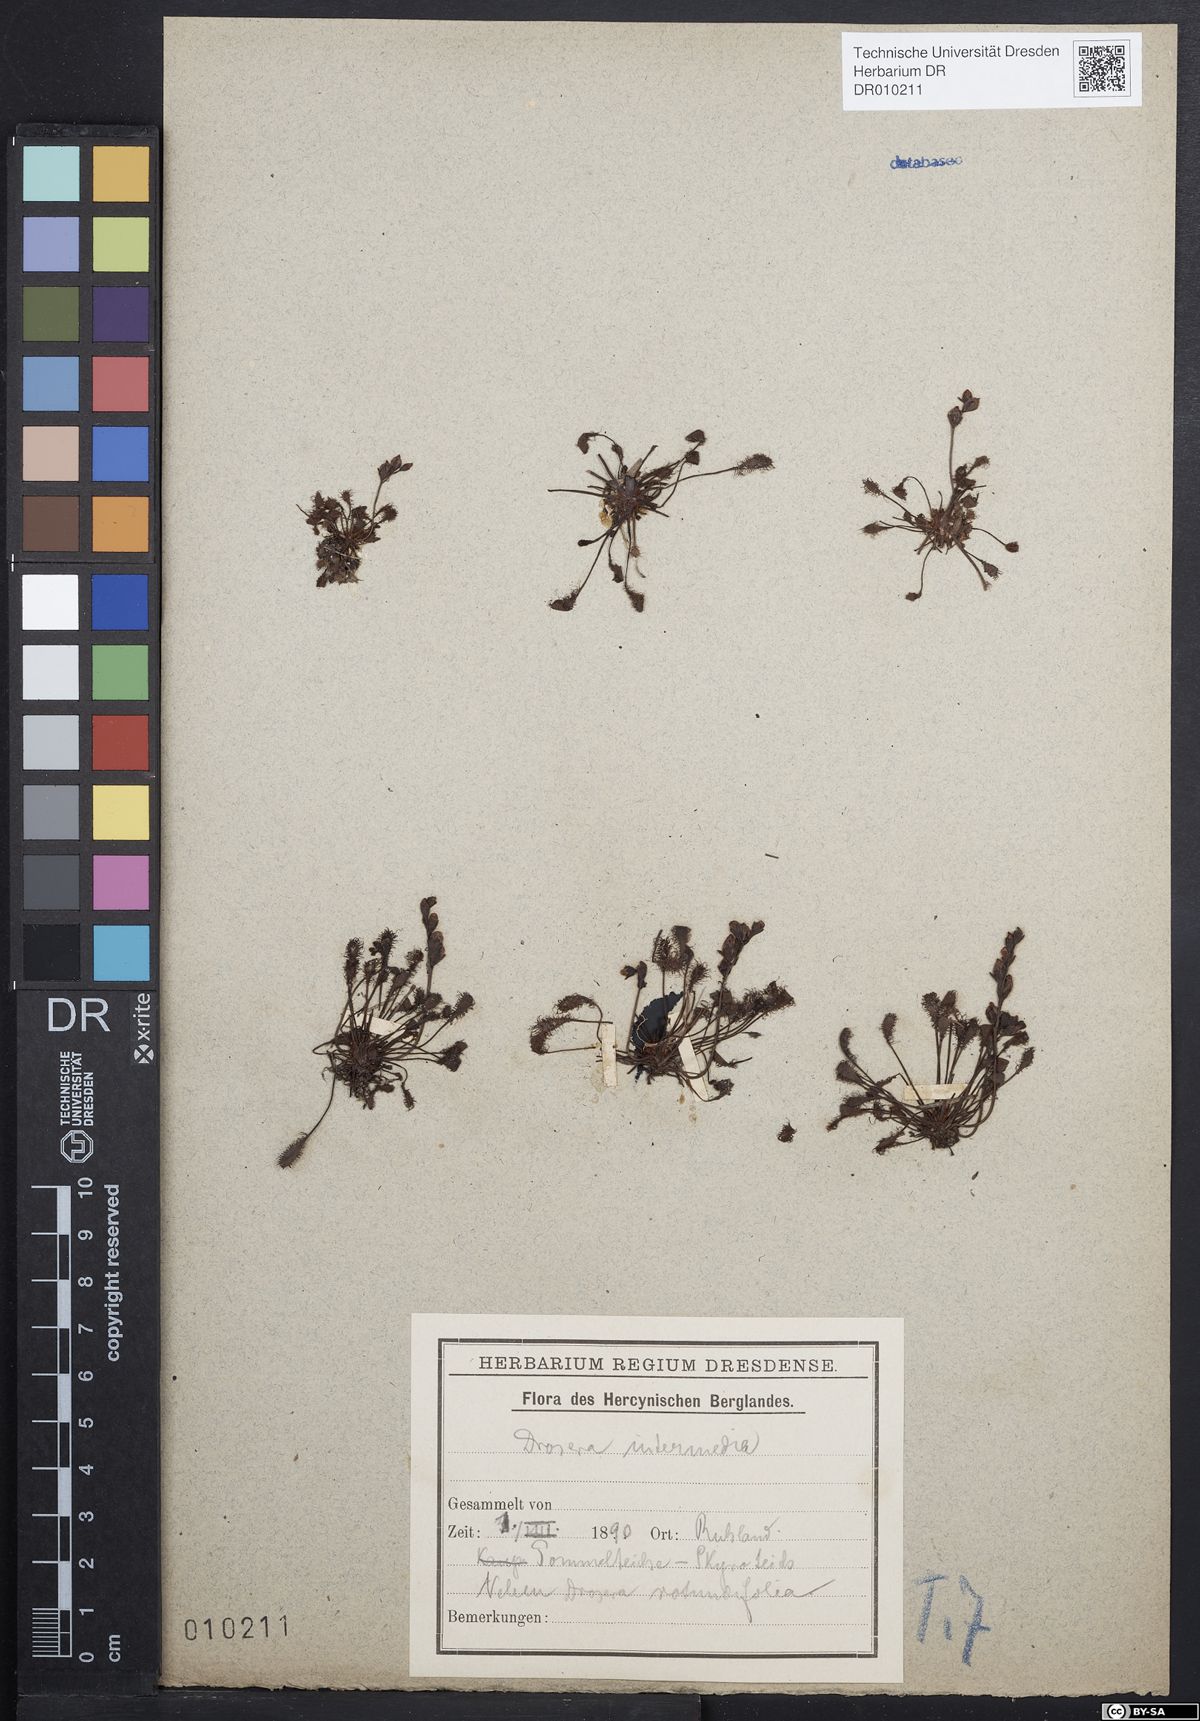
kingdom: Plantae
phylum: Tracheophyta
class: Magnoliopsida
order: Caryophyllales
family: Droseraceae
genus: Drosera
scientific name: Drosera intermedia
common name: Oblong-leaved sundew
